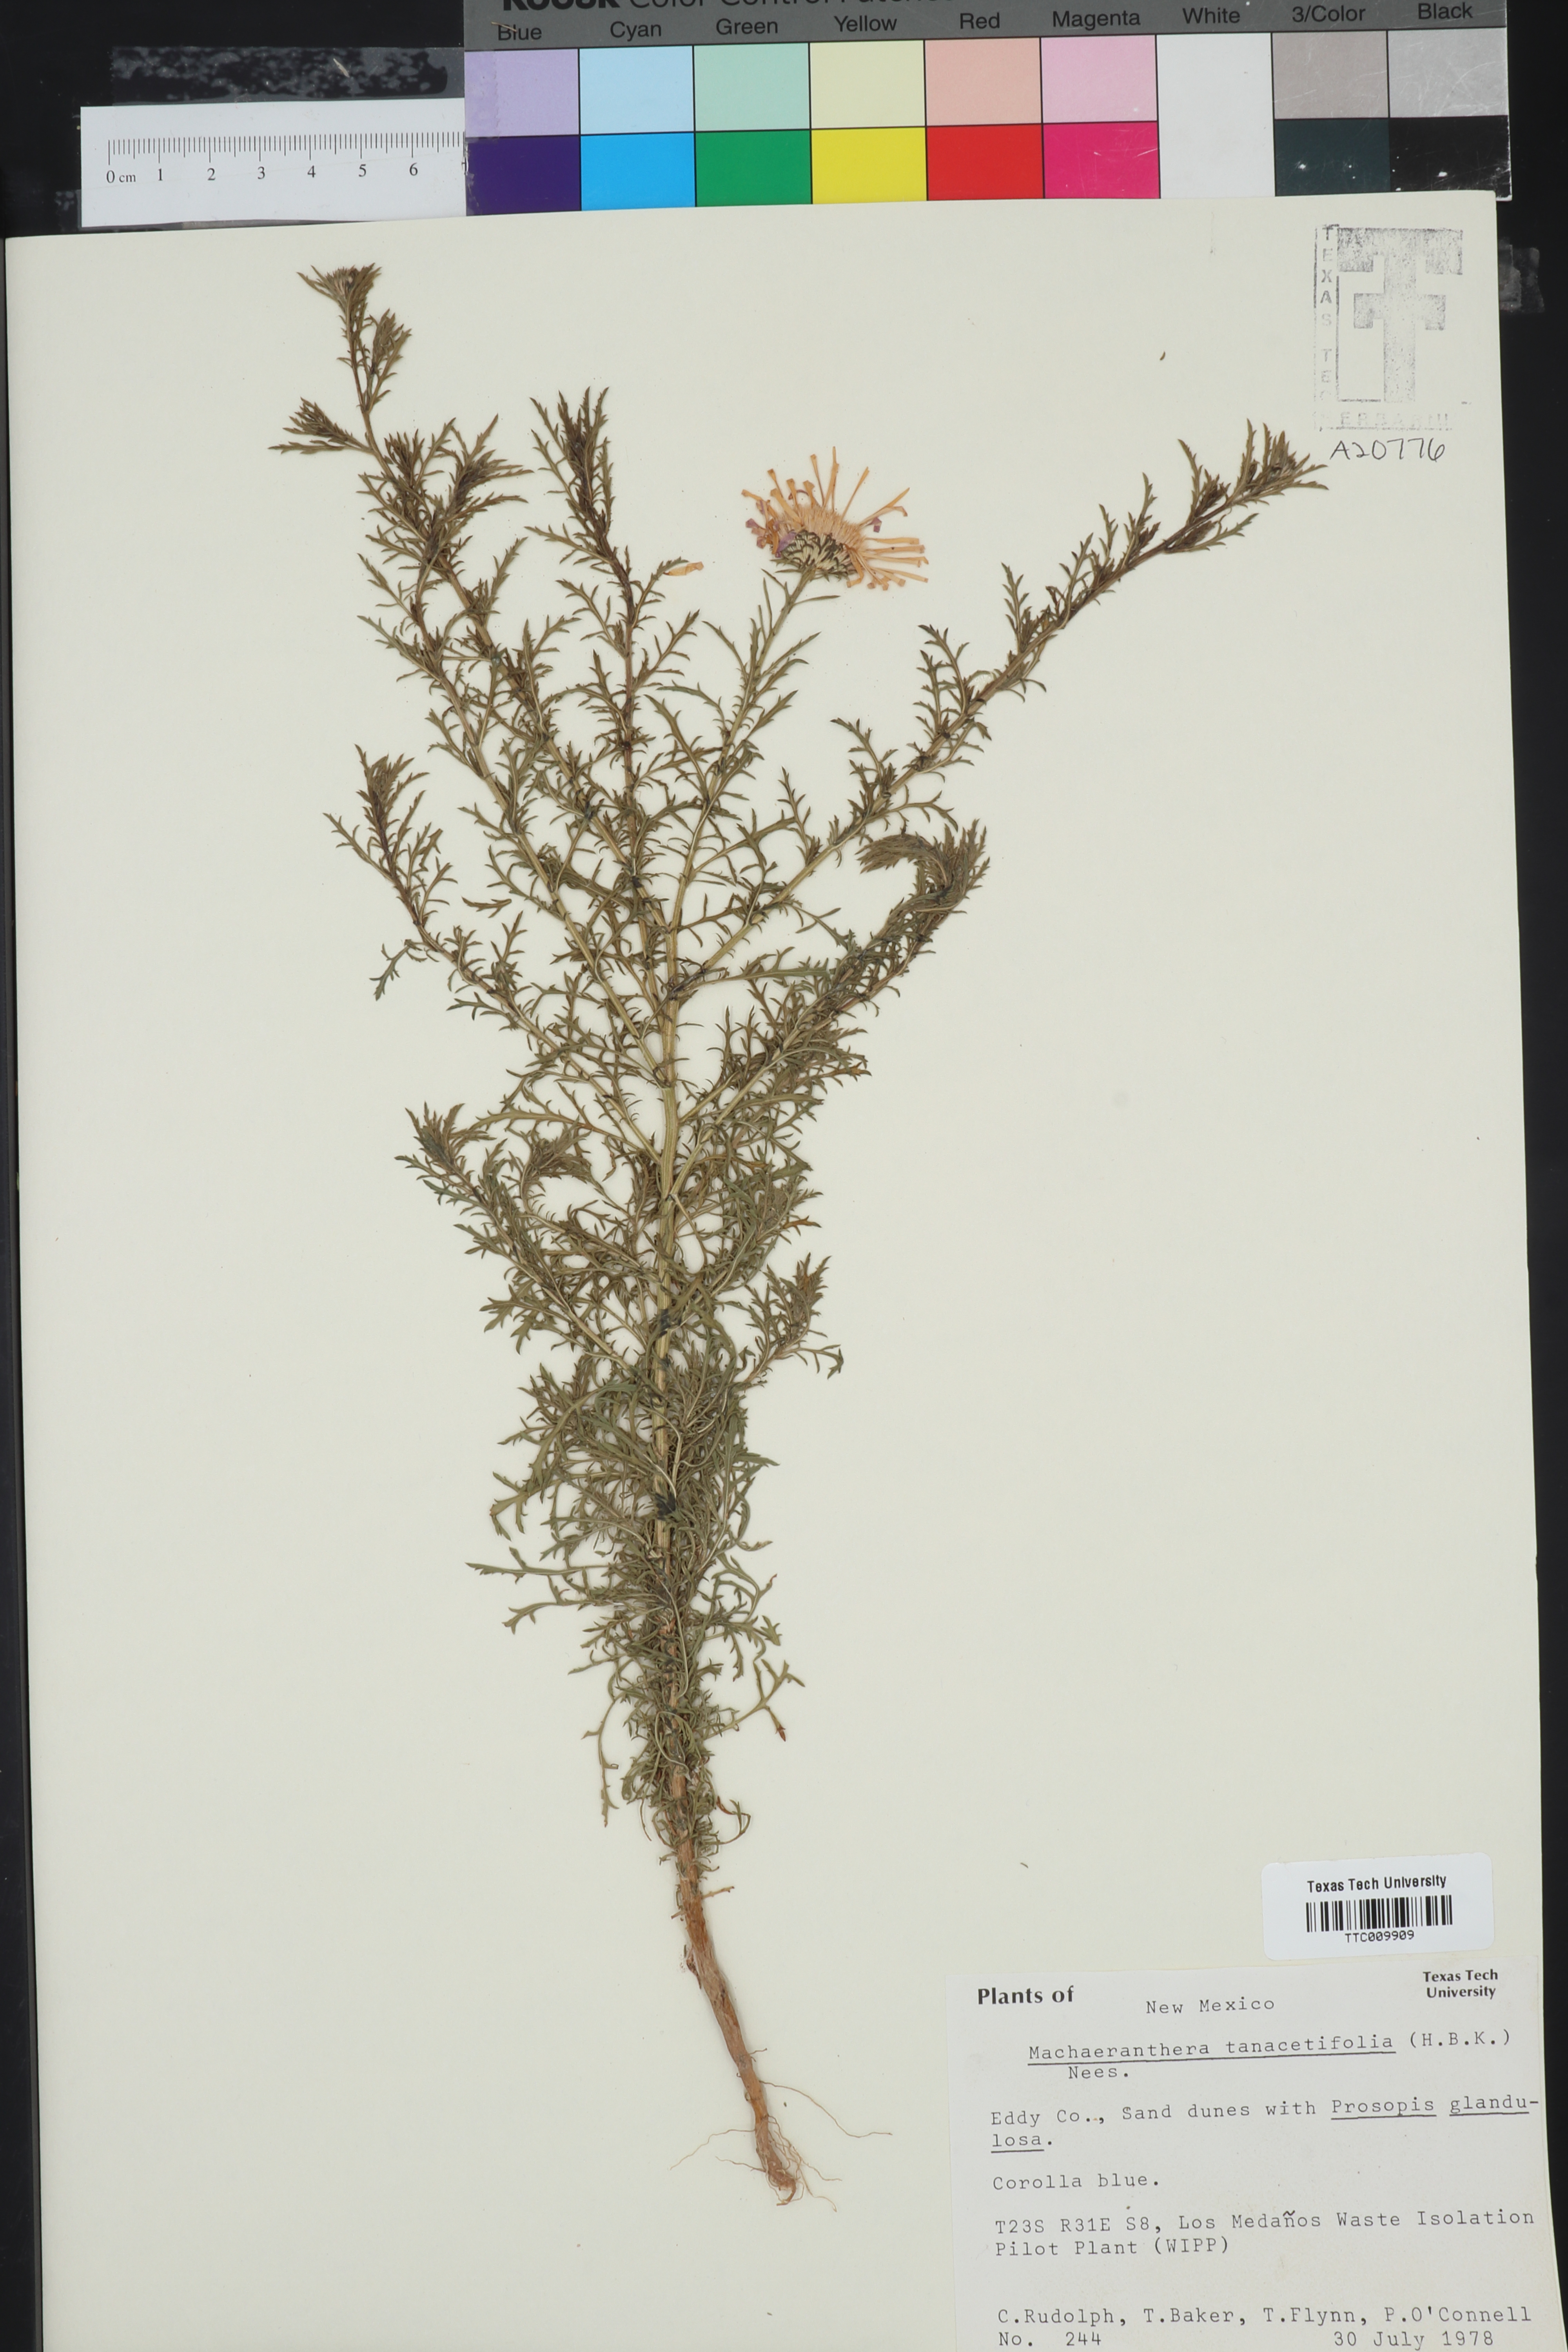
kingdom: Plantae
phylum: Tracheophyta
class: Magnoliopsida
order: Asterales
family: Asteraceae
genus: Machaeranthera
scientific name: Machaeranthera tanacetifolia
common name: Tansy-aster
